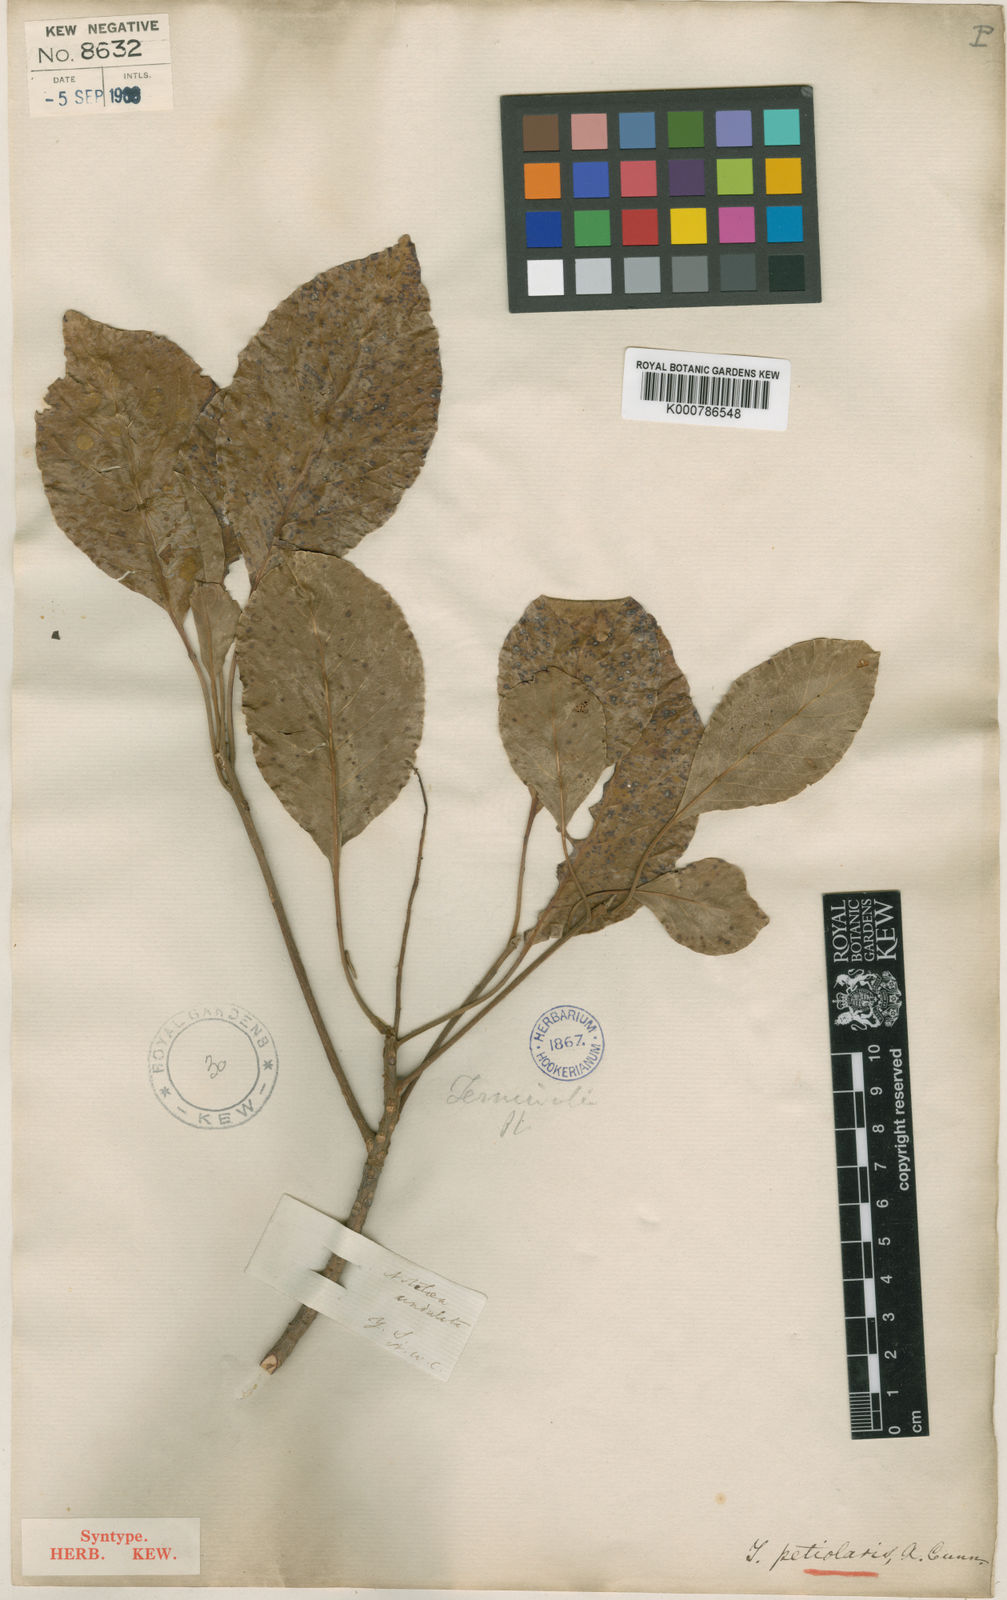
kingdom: Plantae
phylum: Tracheophyta
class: Magnoliopsida
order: Myrtales
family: Combretaceae
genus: Terminalia
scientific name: Terminalia petiolaris
